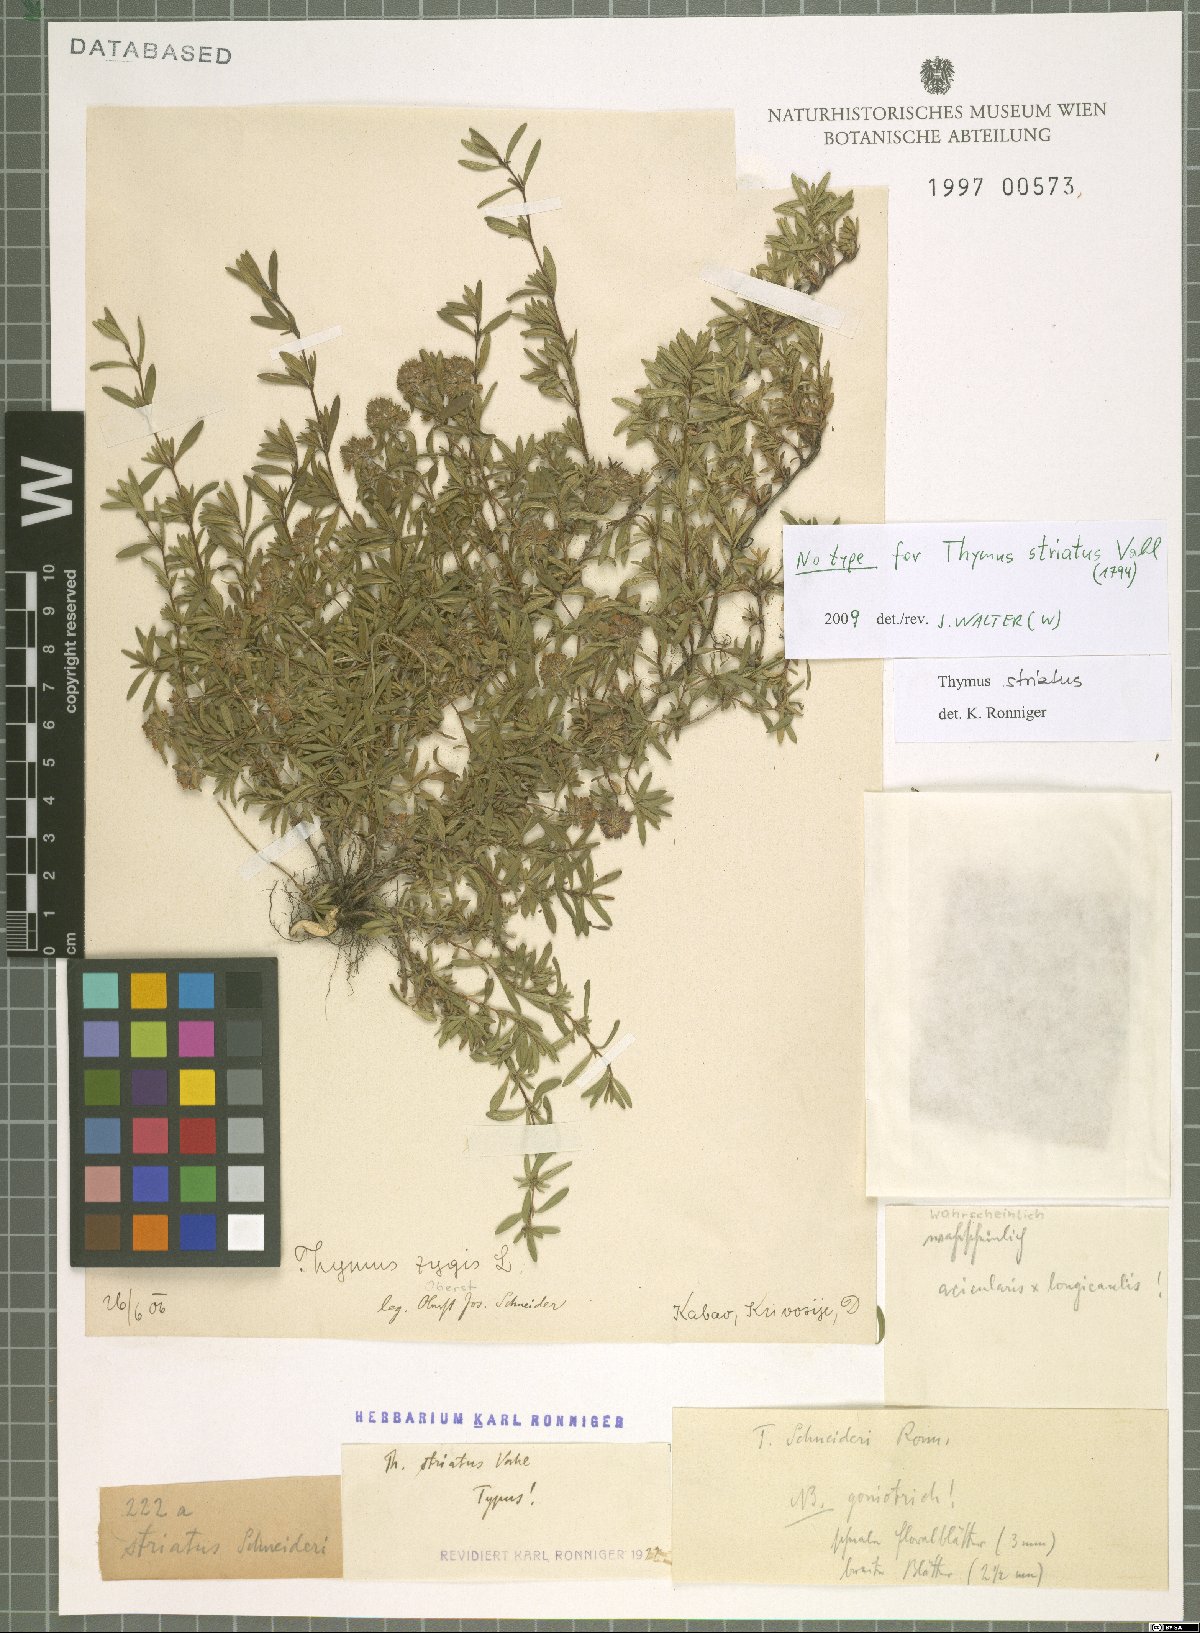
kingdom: Plantae
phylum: Tracheophyta
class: Magnoliopsida
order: Lamiales
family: Lamiaceae
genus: Thymus
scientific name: Thymus striatus
